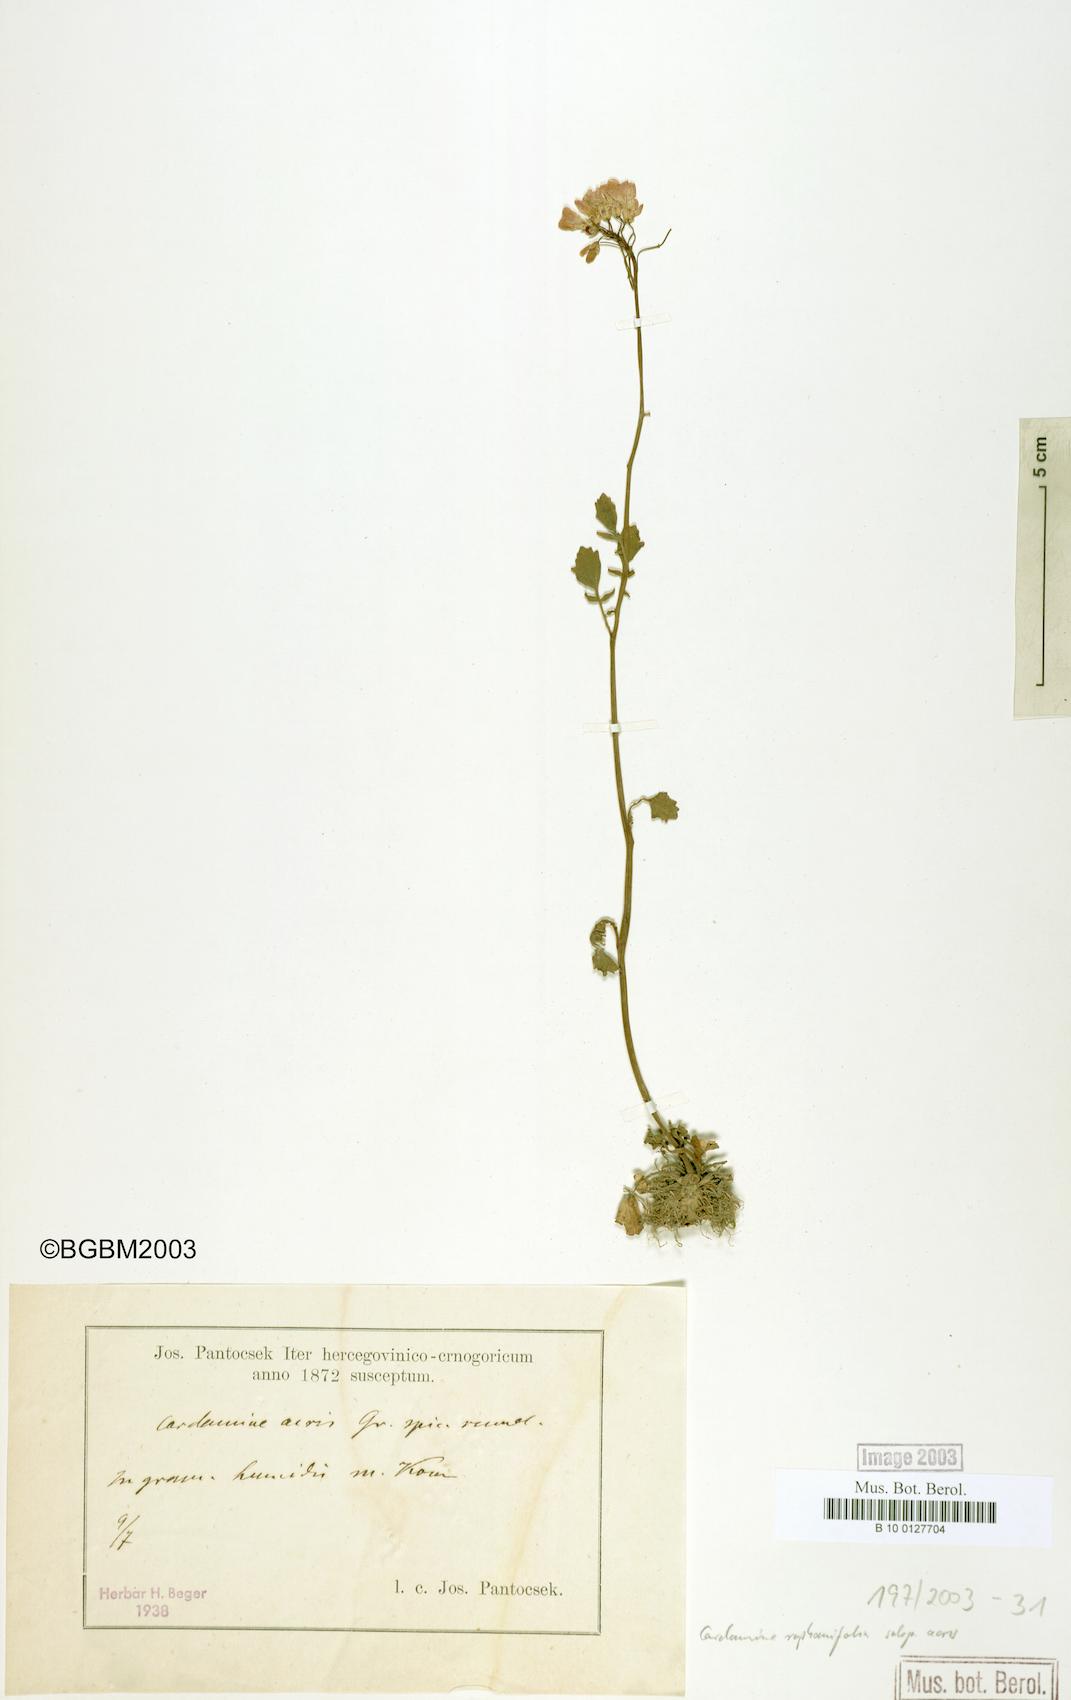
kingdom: Plantae
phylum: Tracheophyta
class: Magnoliopsida
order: Brassicales
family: Brassicaceae
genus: Cardamine
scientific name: Cardamine raphanifolia
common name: Greater cuckooflower
